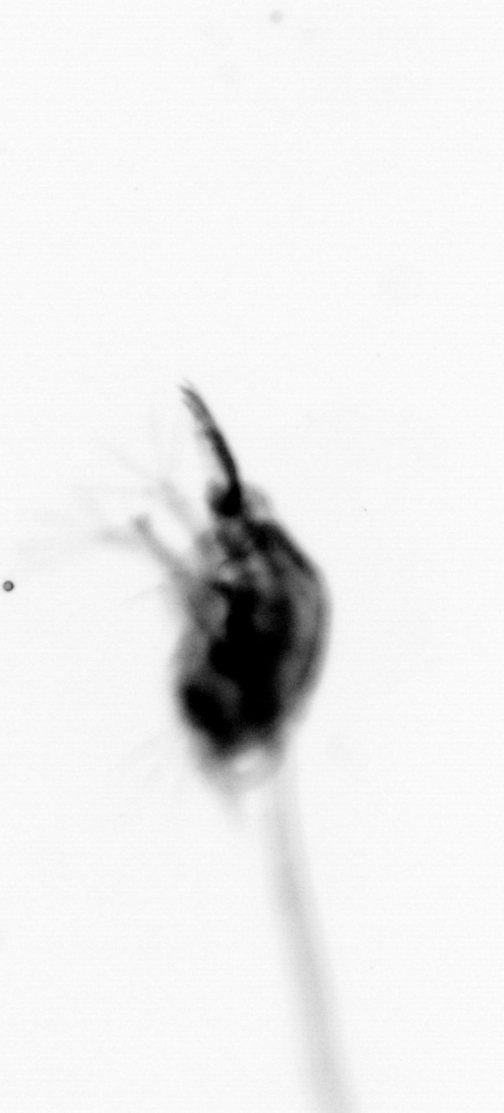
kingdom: Animalia
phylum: Arthropoda
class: Copepoda
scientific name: Copepoda
